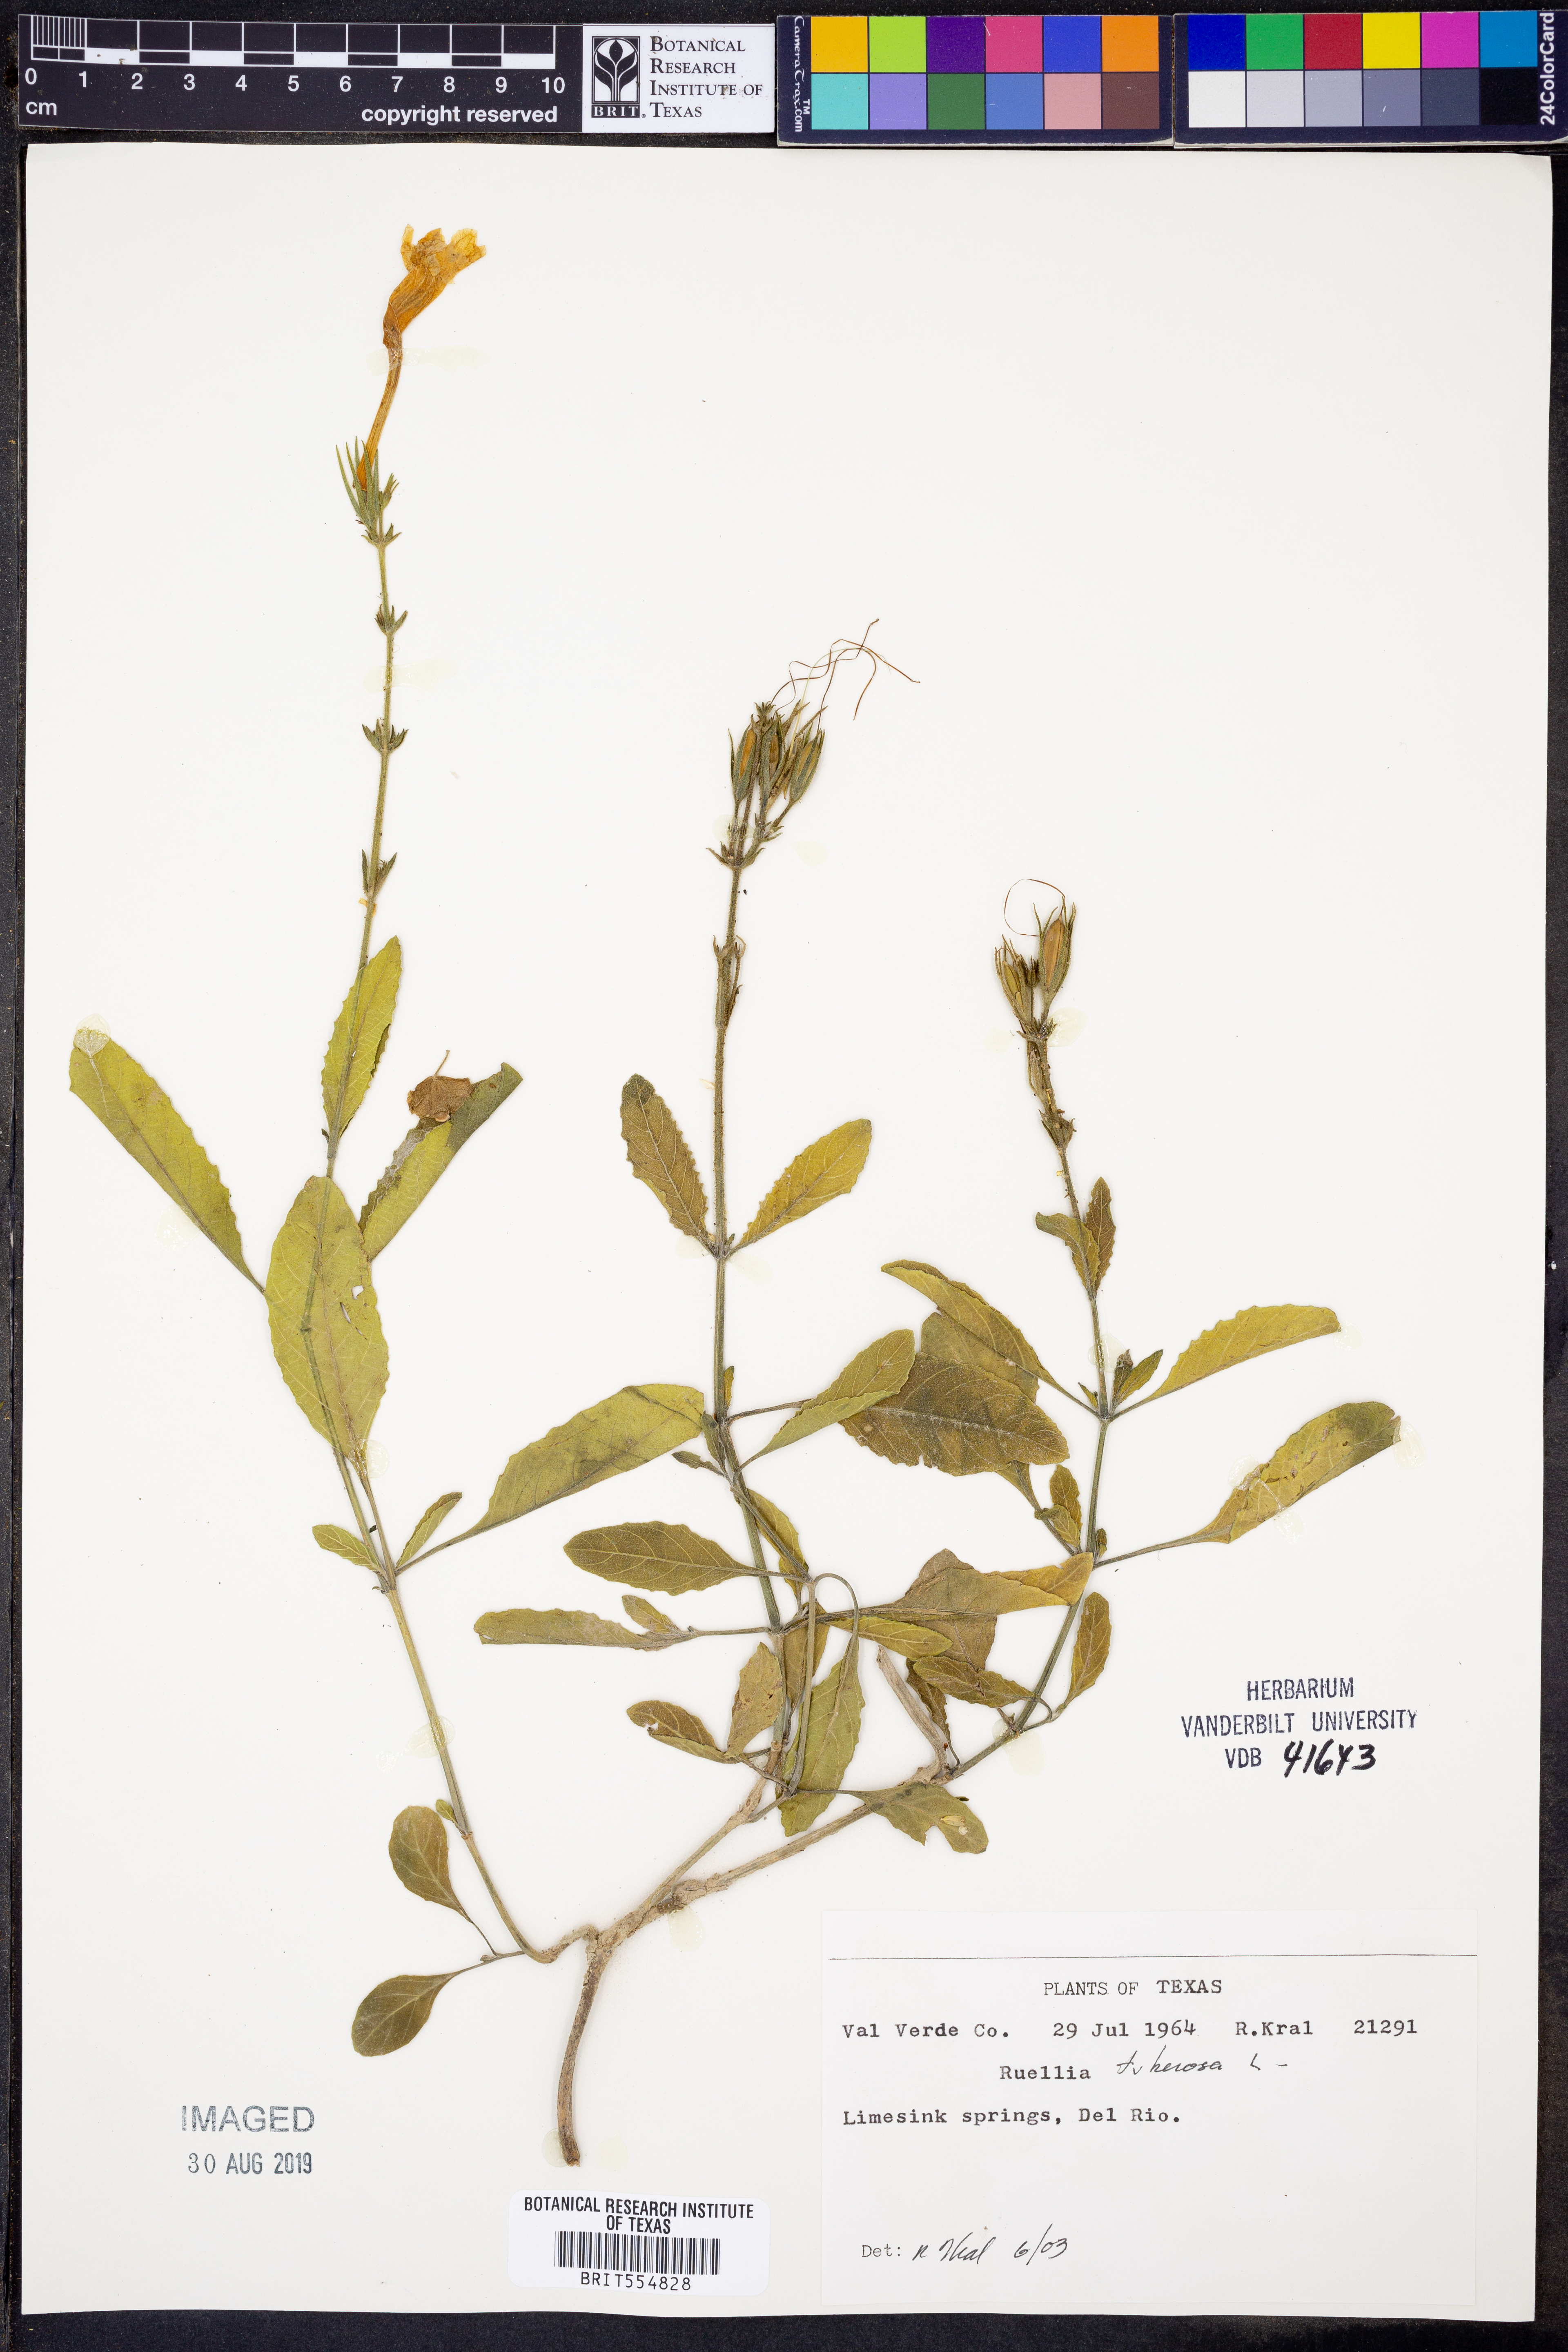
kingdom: Plantae
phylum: Tracheophyta
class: Magnoliopsida
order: Lamiales
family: Acanthaceae
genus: Ruellia
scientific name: Ruellia tuberosa
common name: Devil's bit
